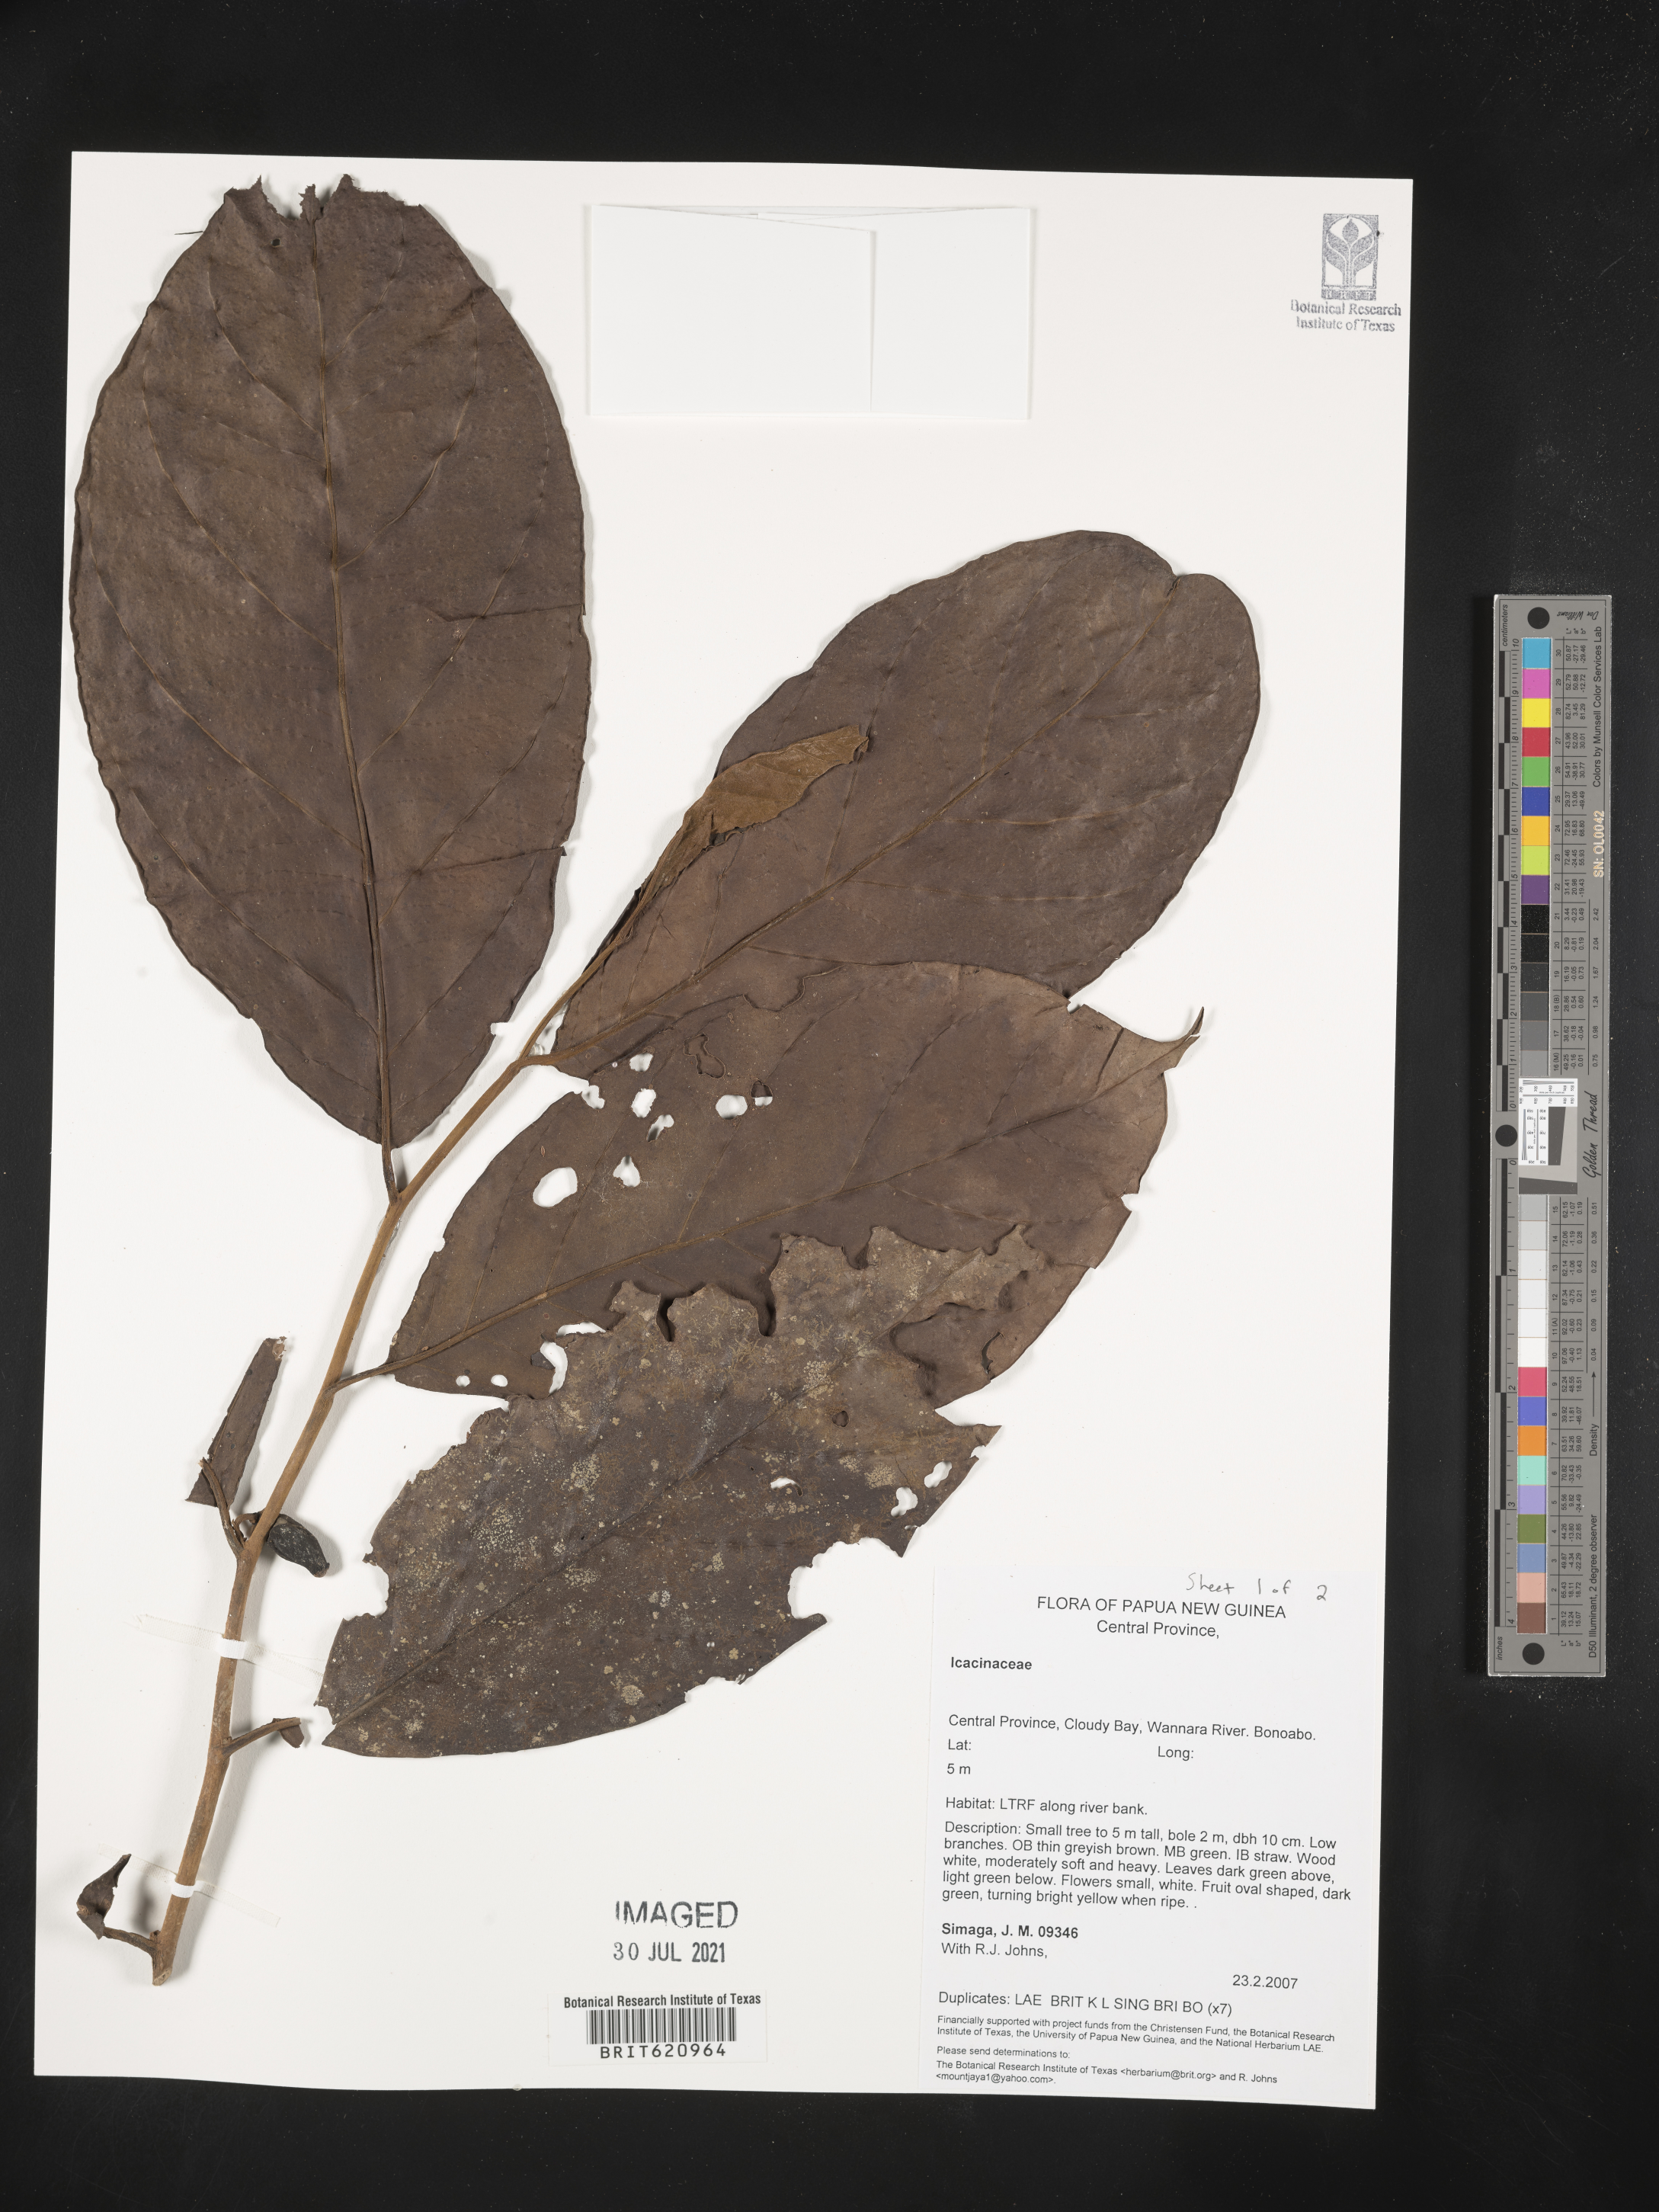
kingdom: Plantae
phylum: Tracheophyta
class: Magnoliopsida
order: Icacinales
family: Icacinaceae
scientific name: Icacinaceae
